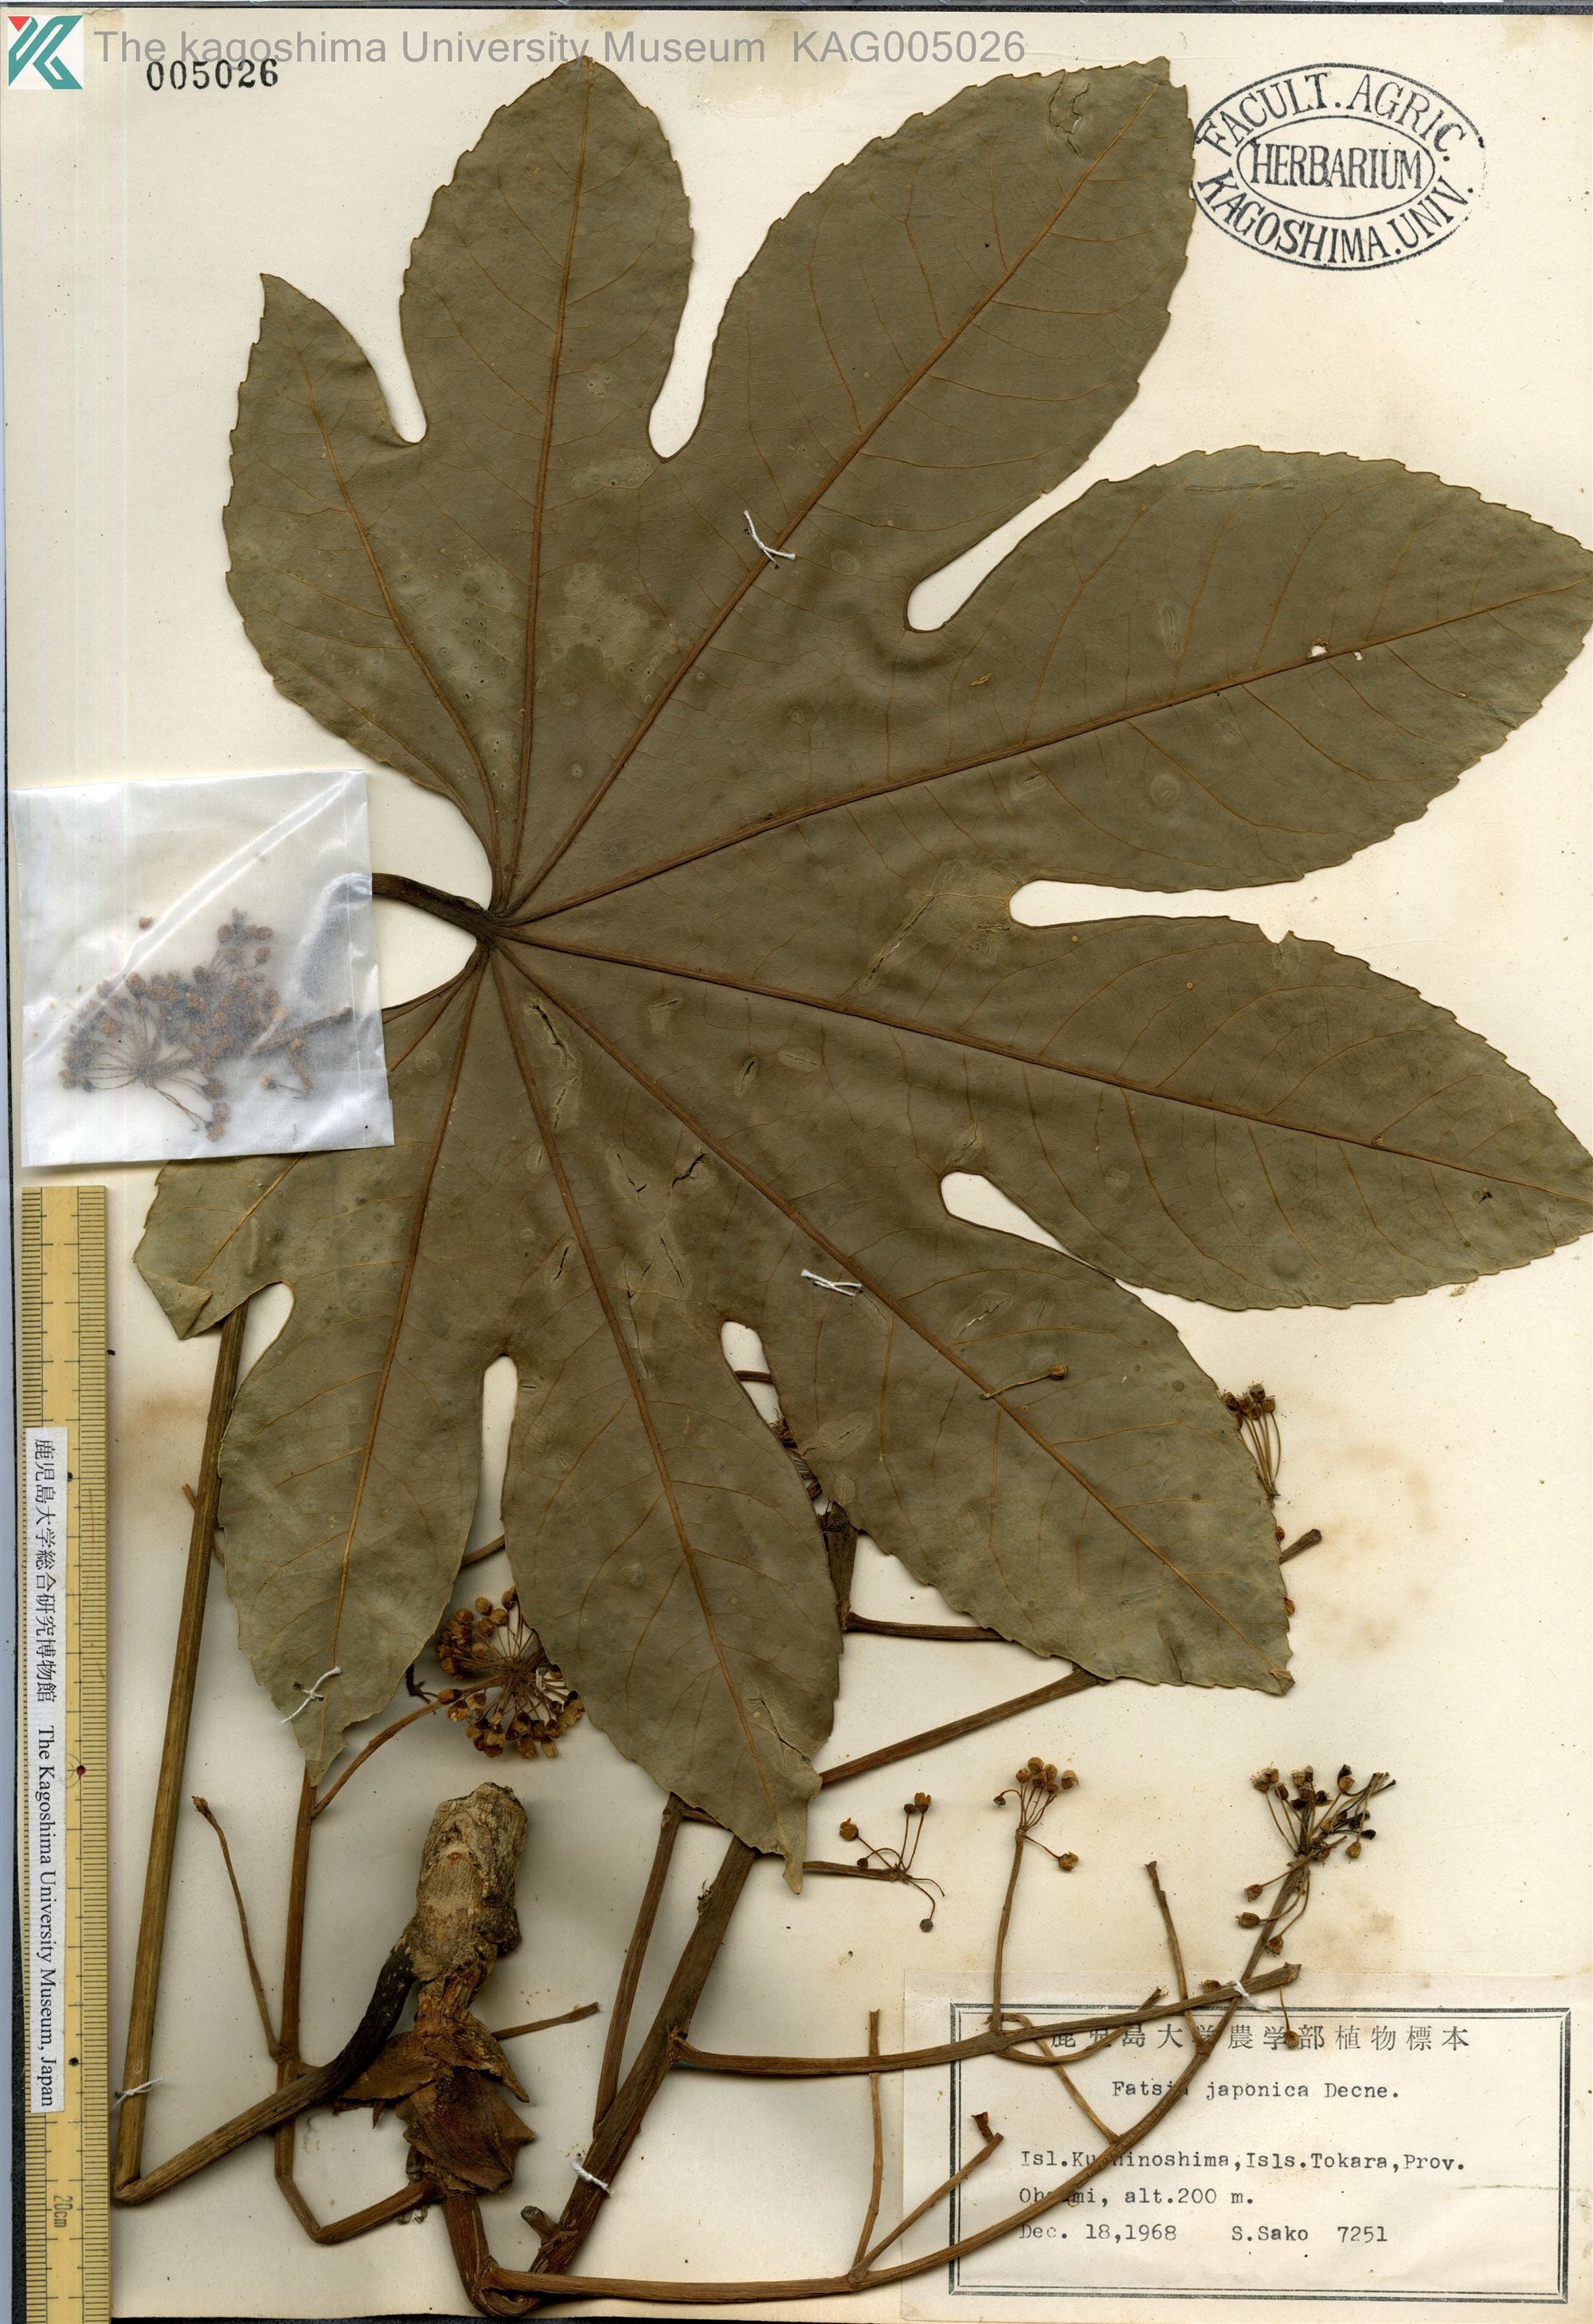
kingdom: Plantae
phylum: Tracheophyta
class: Magnoliopsida
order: Apiales
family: Araliaceae
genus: Fatsia
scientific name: Fatsia japonica
